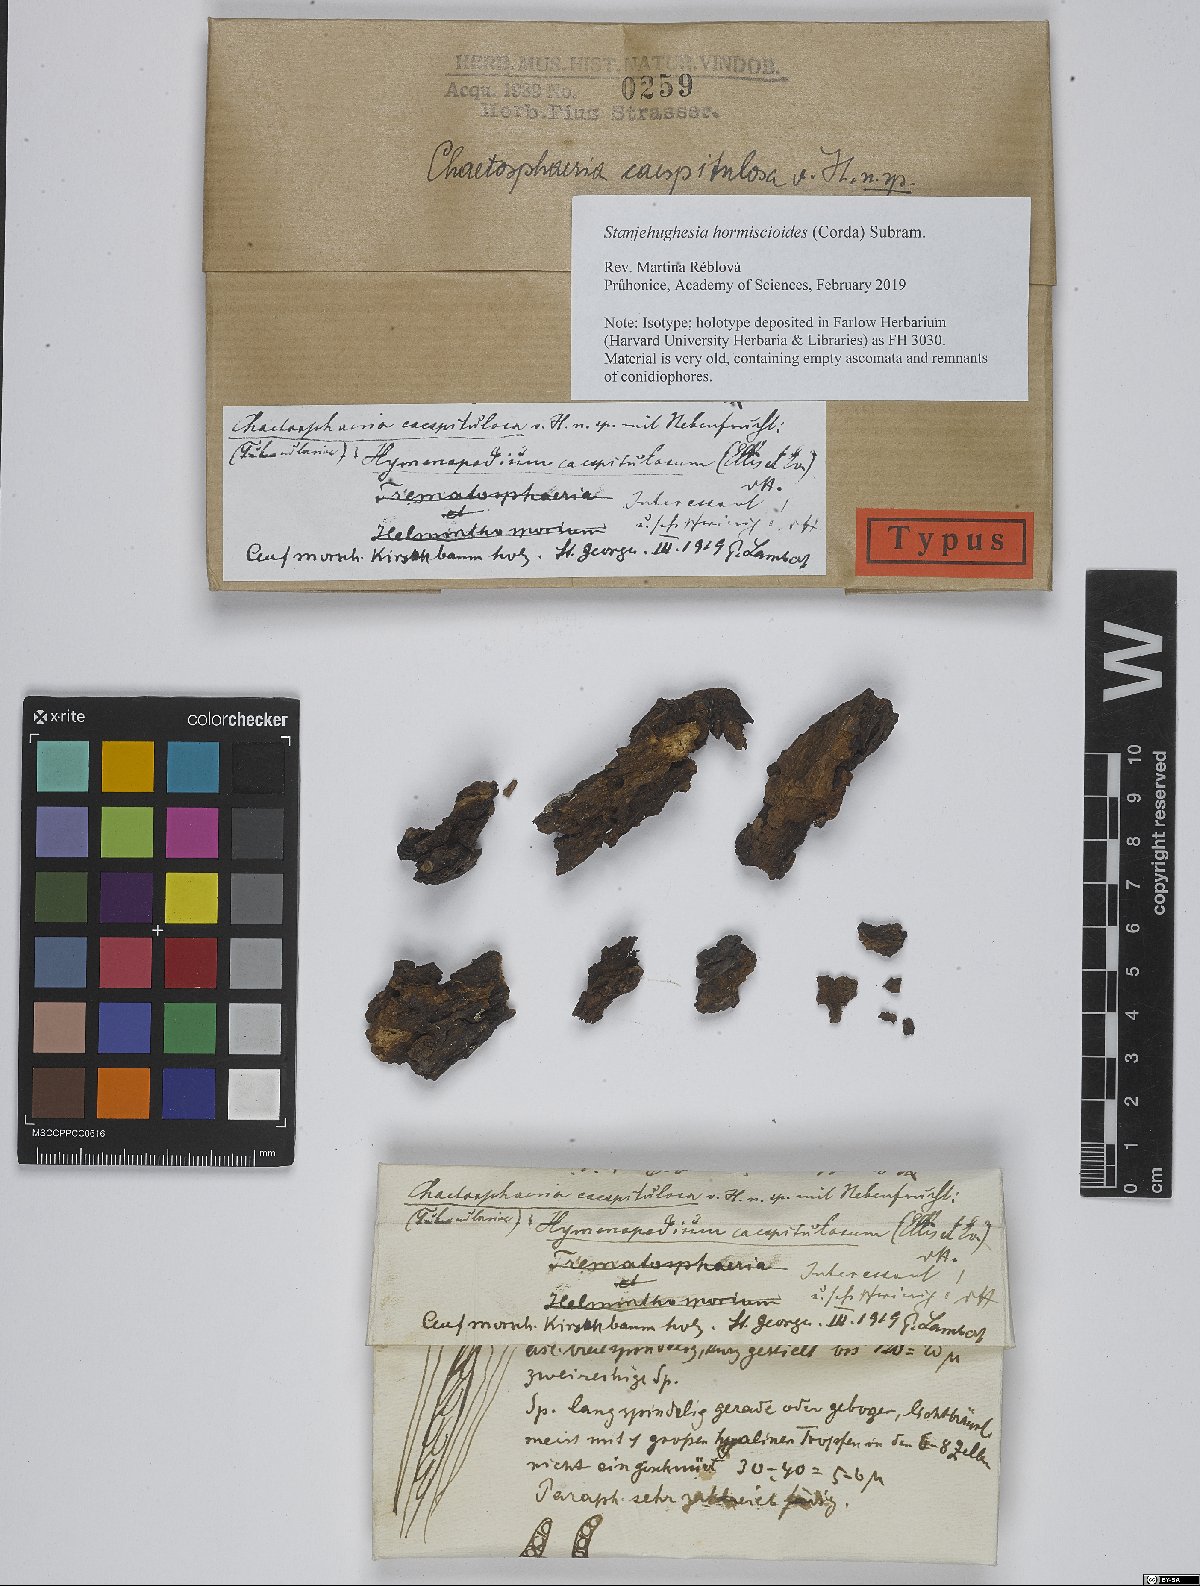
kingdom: Fungi
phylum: Ascomycota
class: Sordariomycetes
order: Chaetosphaeriales
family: Chaetosphaeriaceae
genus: Chaetosphaeria
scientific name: Chaetosphaeria caespitulosa
